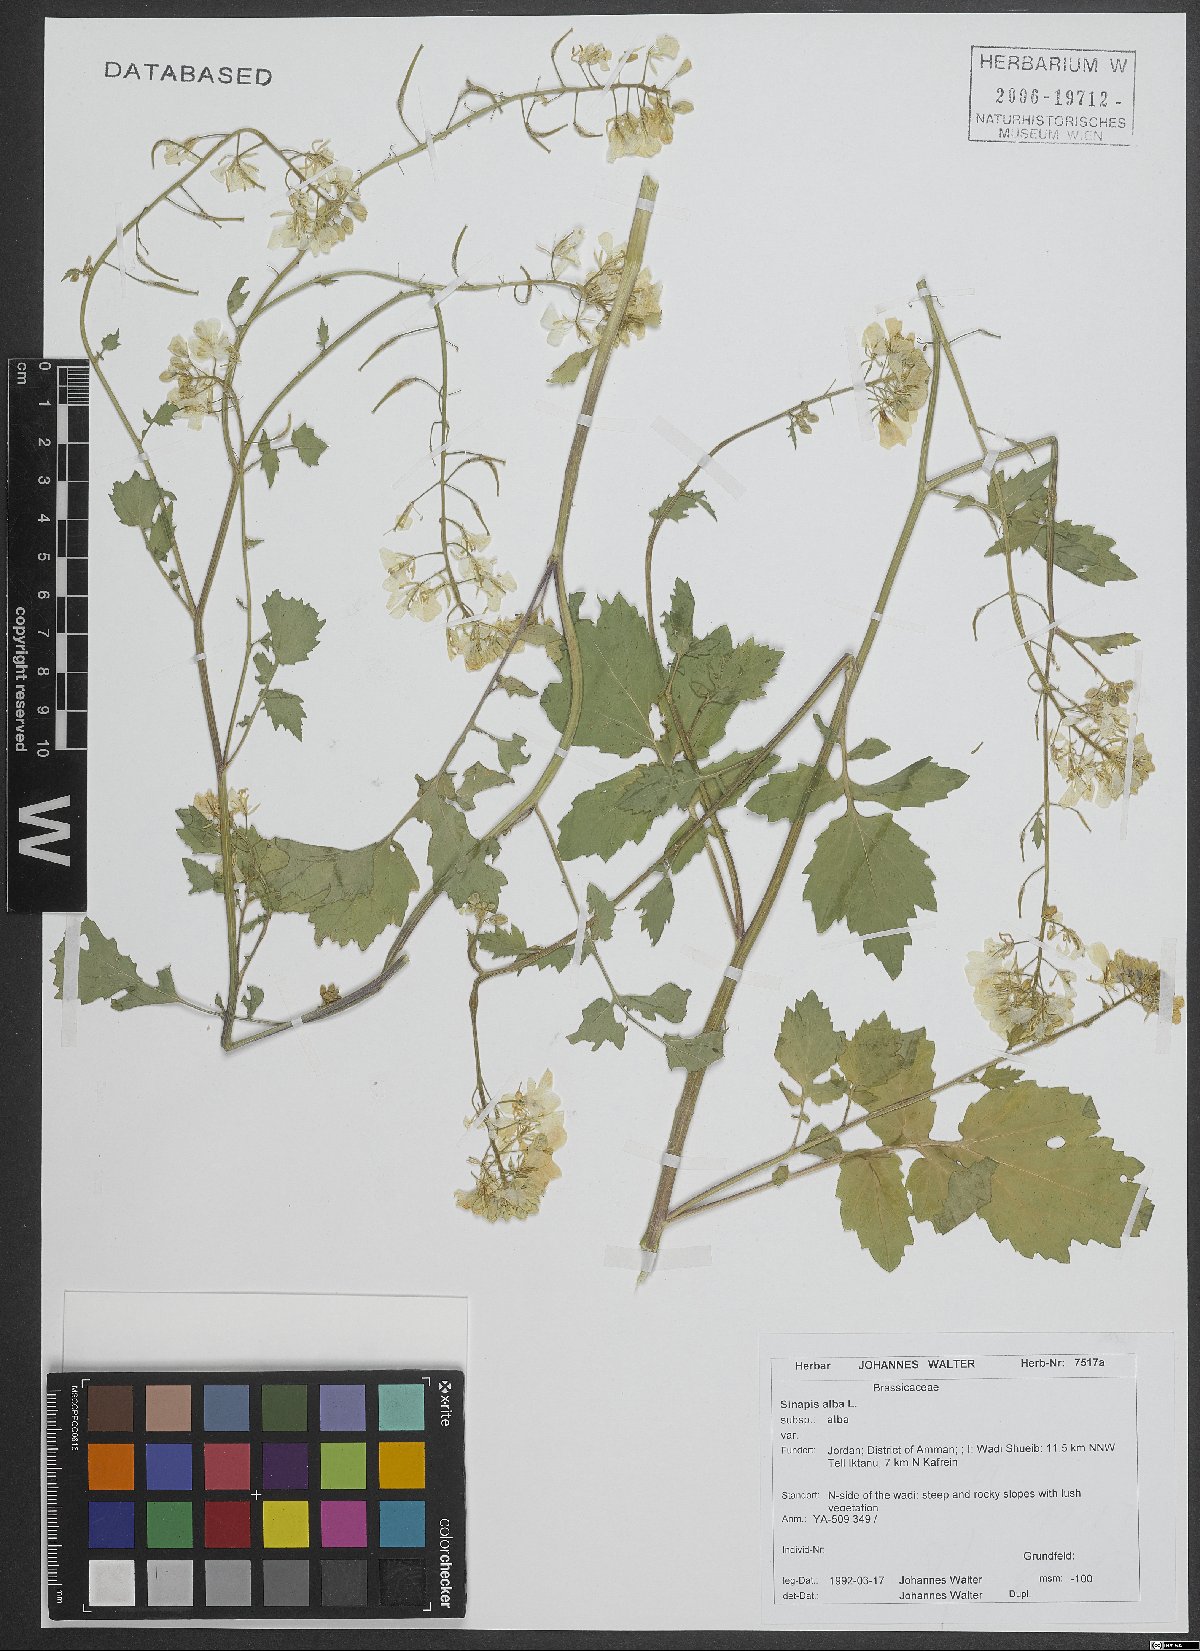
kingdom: Plantae
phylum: Tracheophyta
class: Magnoliopsida
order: Brassicales
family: Brassicaceae
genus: Sinapis
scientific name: Sinapis alba
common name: White mustard
